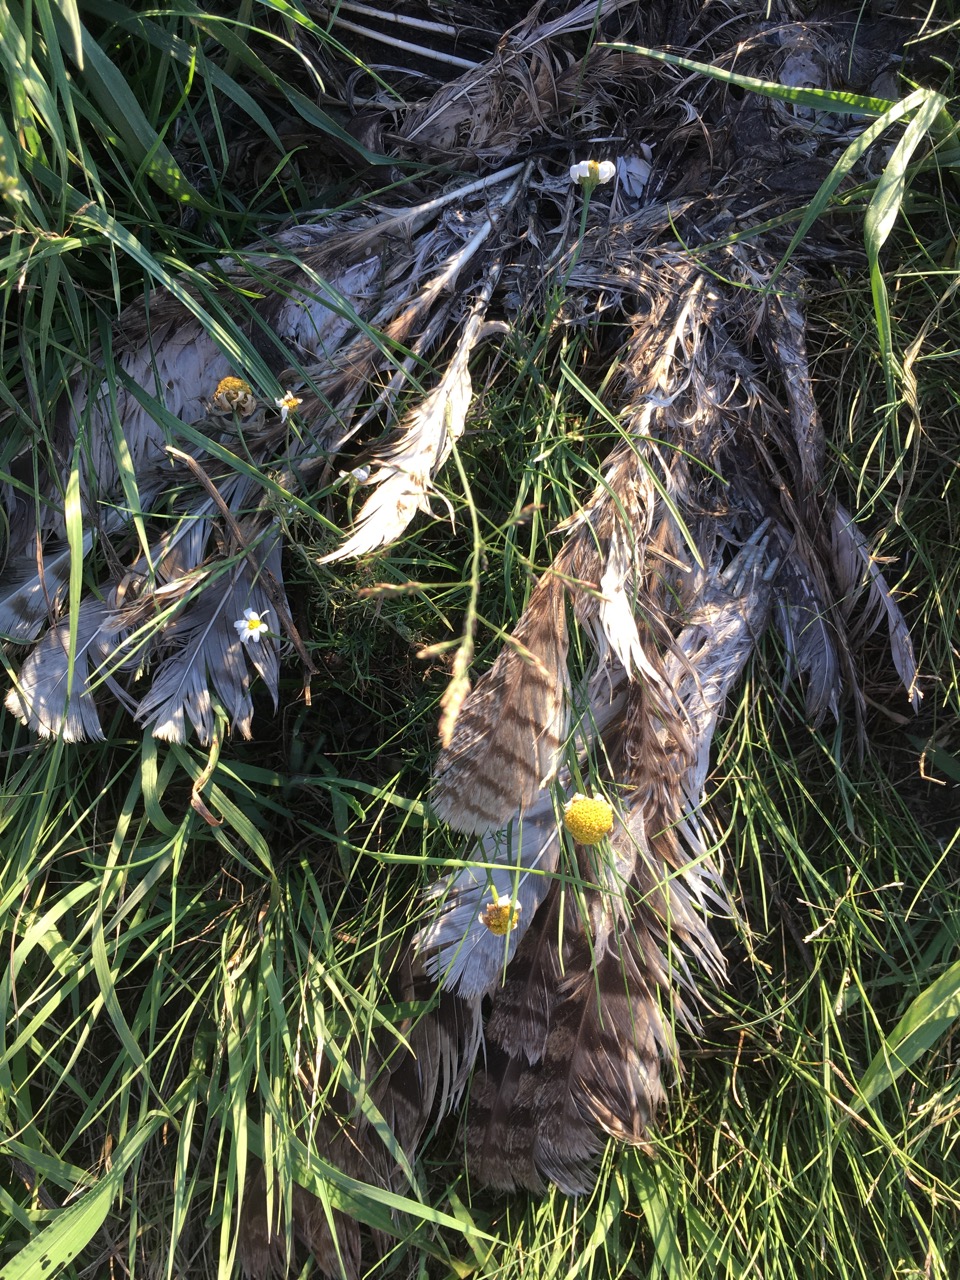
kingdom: Animalia
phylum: Chordata
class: Aves
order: Strigiformes
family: Strigidae
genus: Asio
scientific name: Asio otus
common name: Long-eared owl
